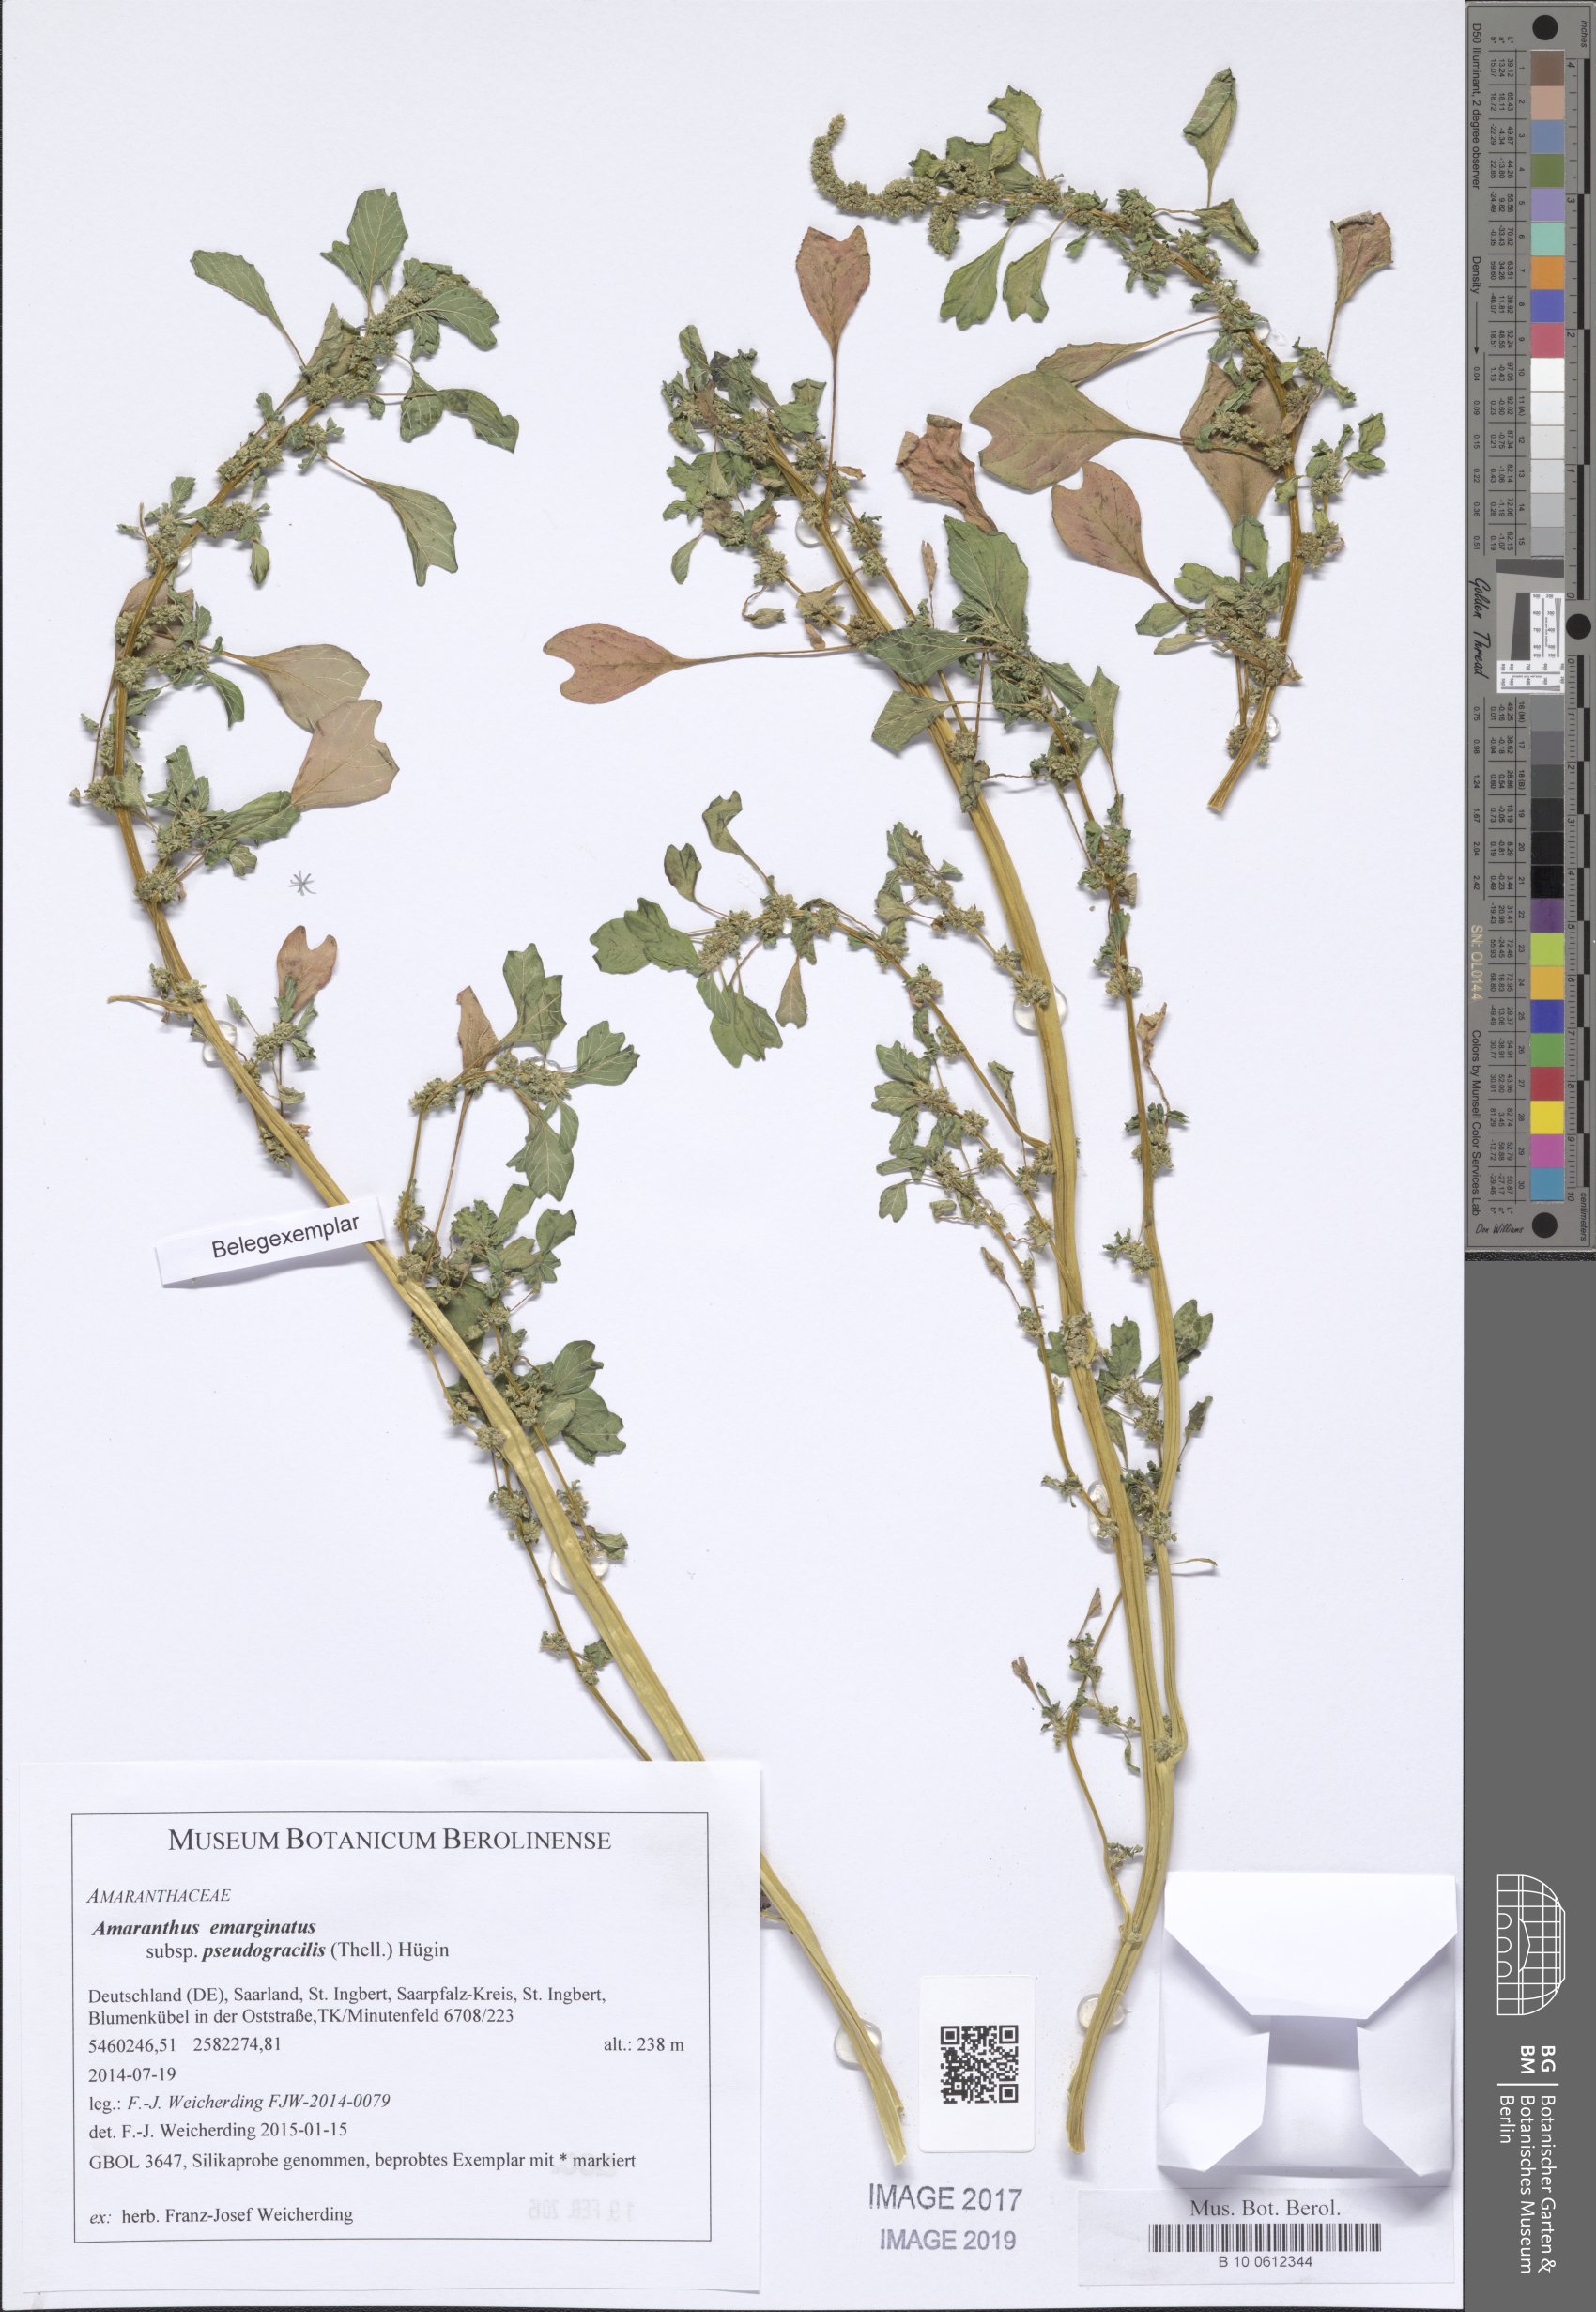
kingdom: Plantae
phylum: Tracheophyta
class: Magnoliopsida
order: Caryophyllales
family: Amaranthaceae
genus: Amaranthus
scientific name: Amaranthus emarginatus
